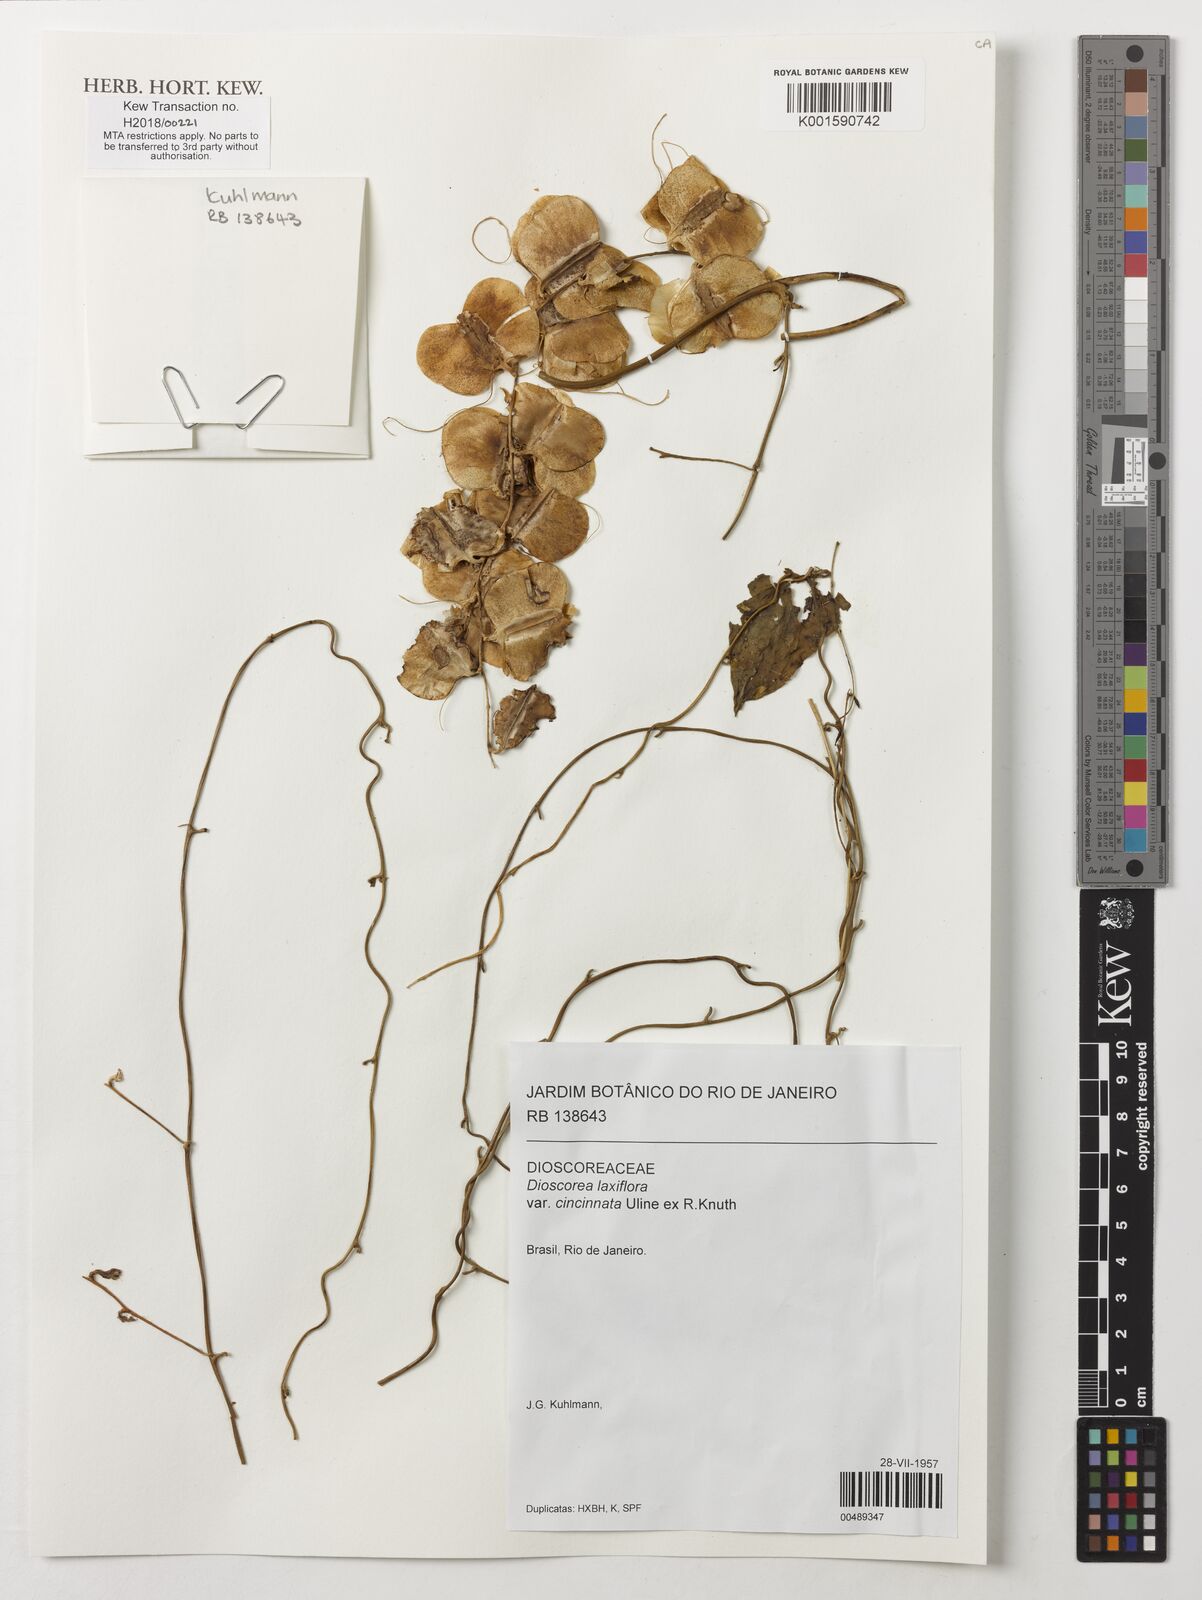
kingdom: Plantae
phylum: Tracheophyta
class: Liliopsida
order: Dioscoreales
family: Dioscoreaceae
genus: Dioscorea
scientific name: Dioscorea laxiflora
